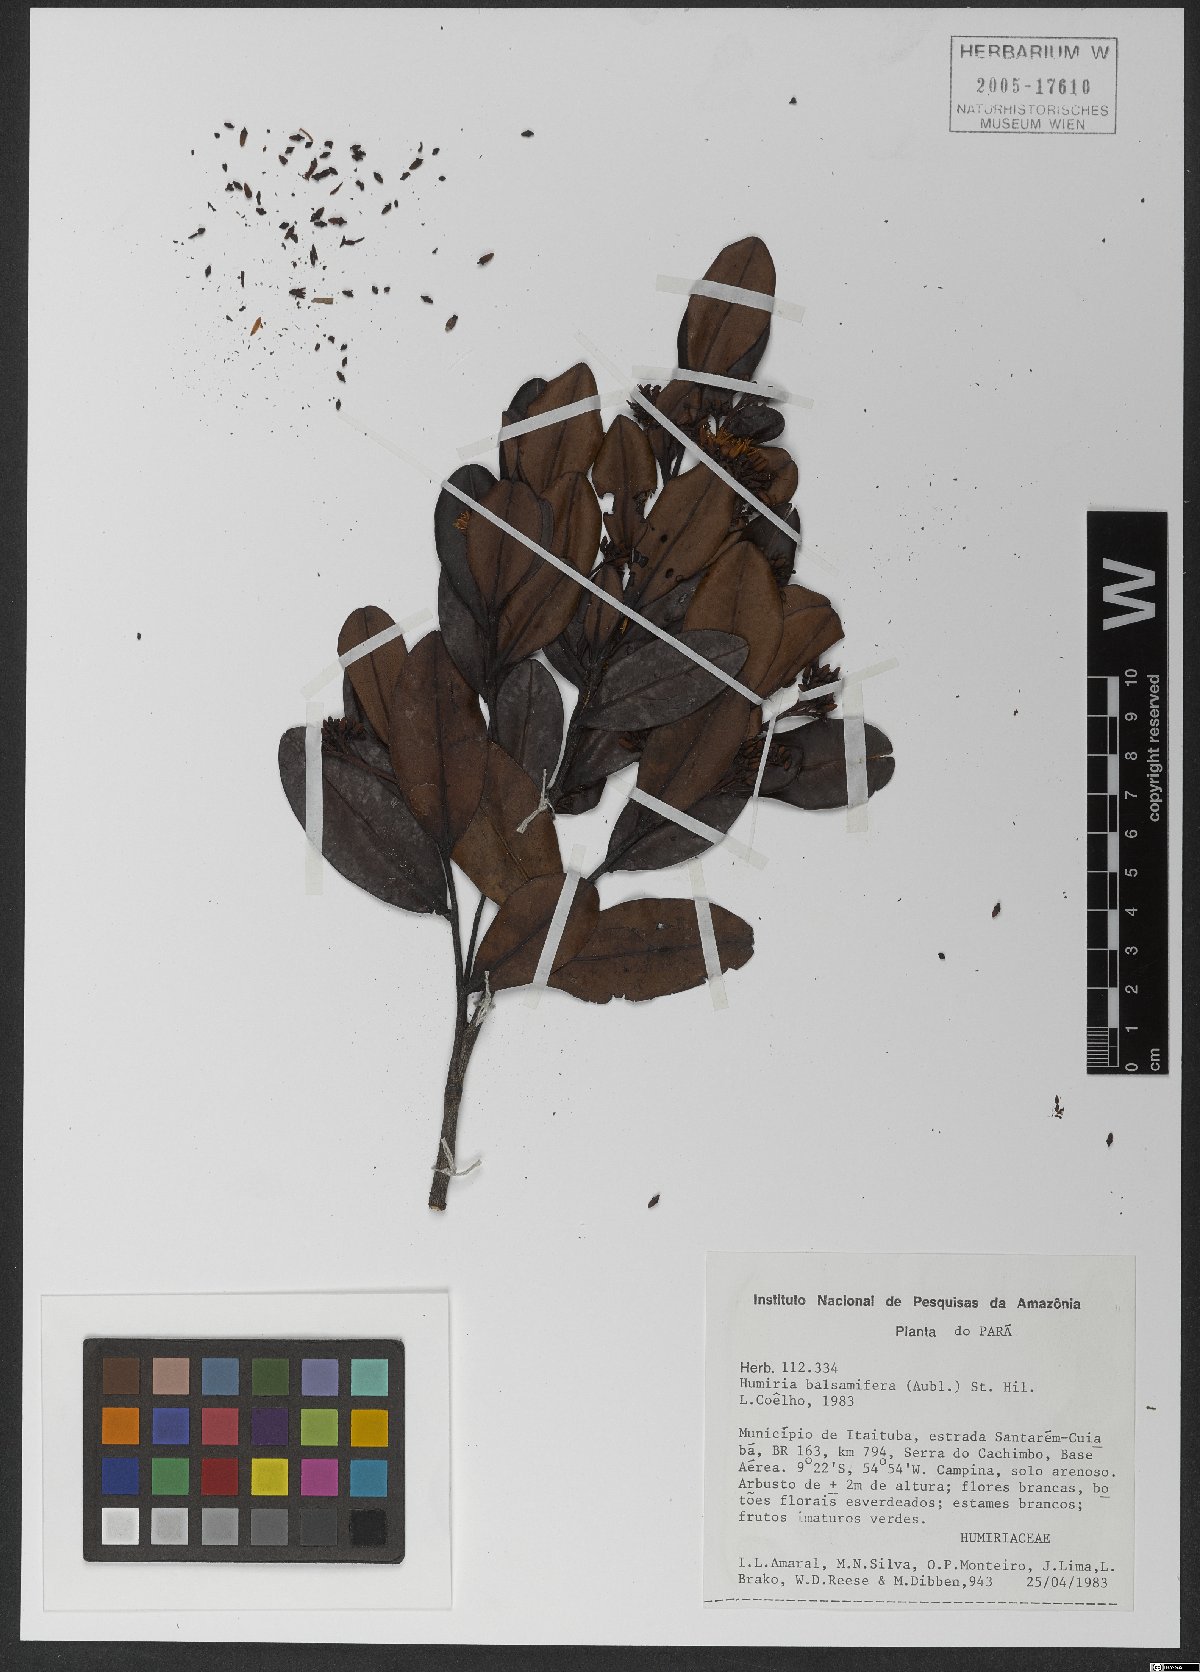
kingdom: Plantae
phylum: Tracheophyta
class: Magnoliopsida
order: Malpighiales
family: Humiriaceae
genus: Humiria
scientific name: Humiria balsamifera
